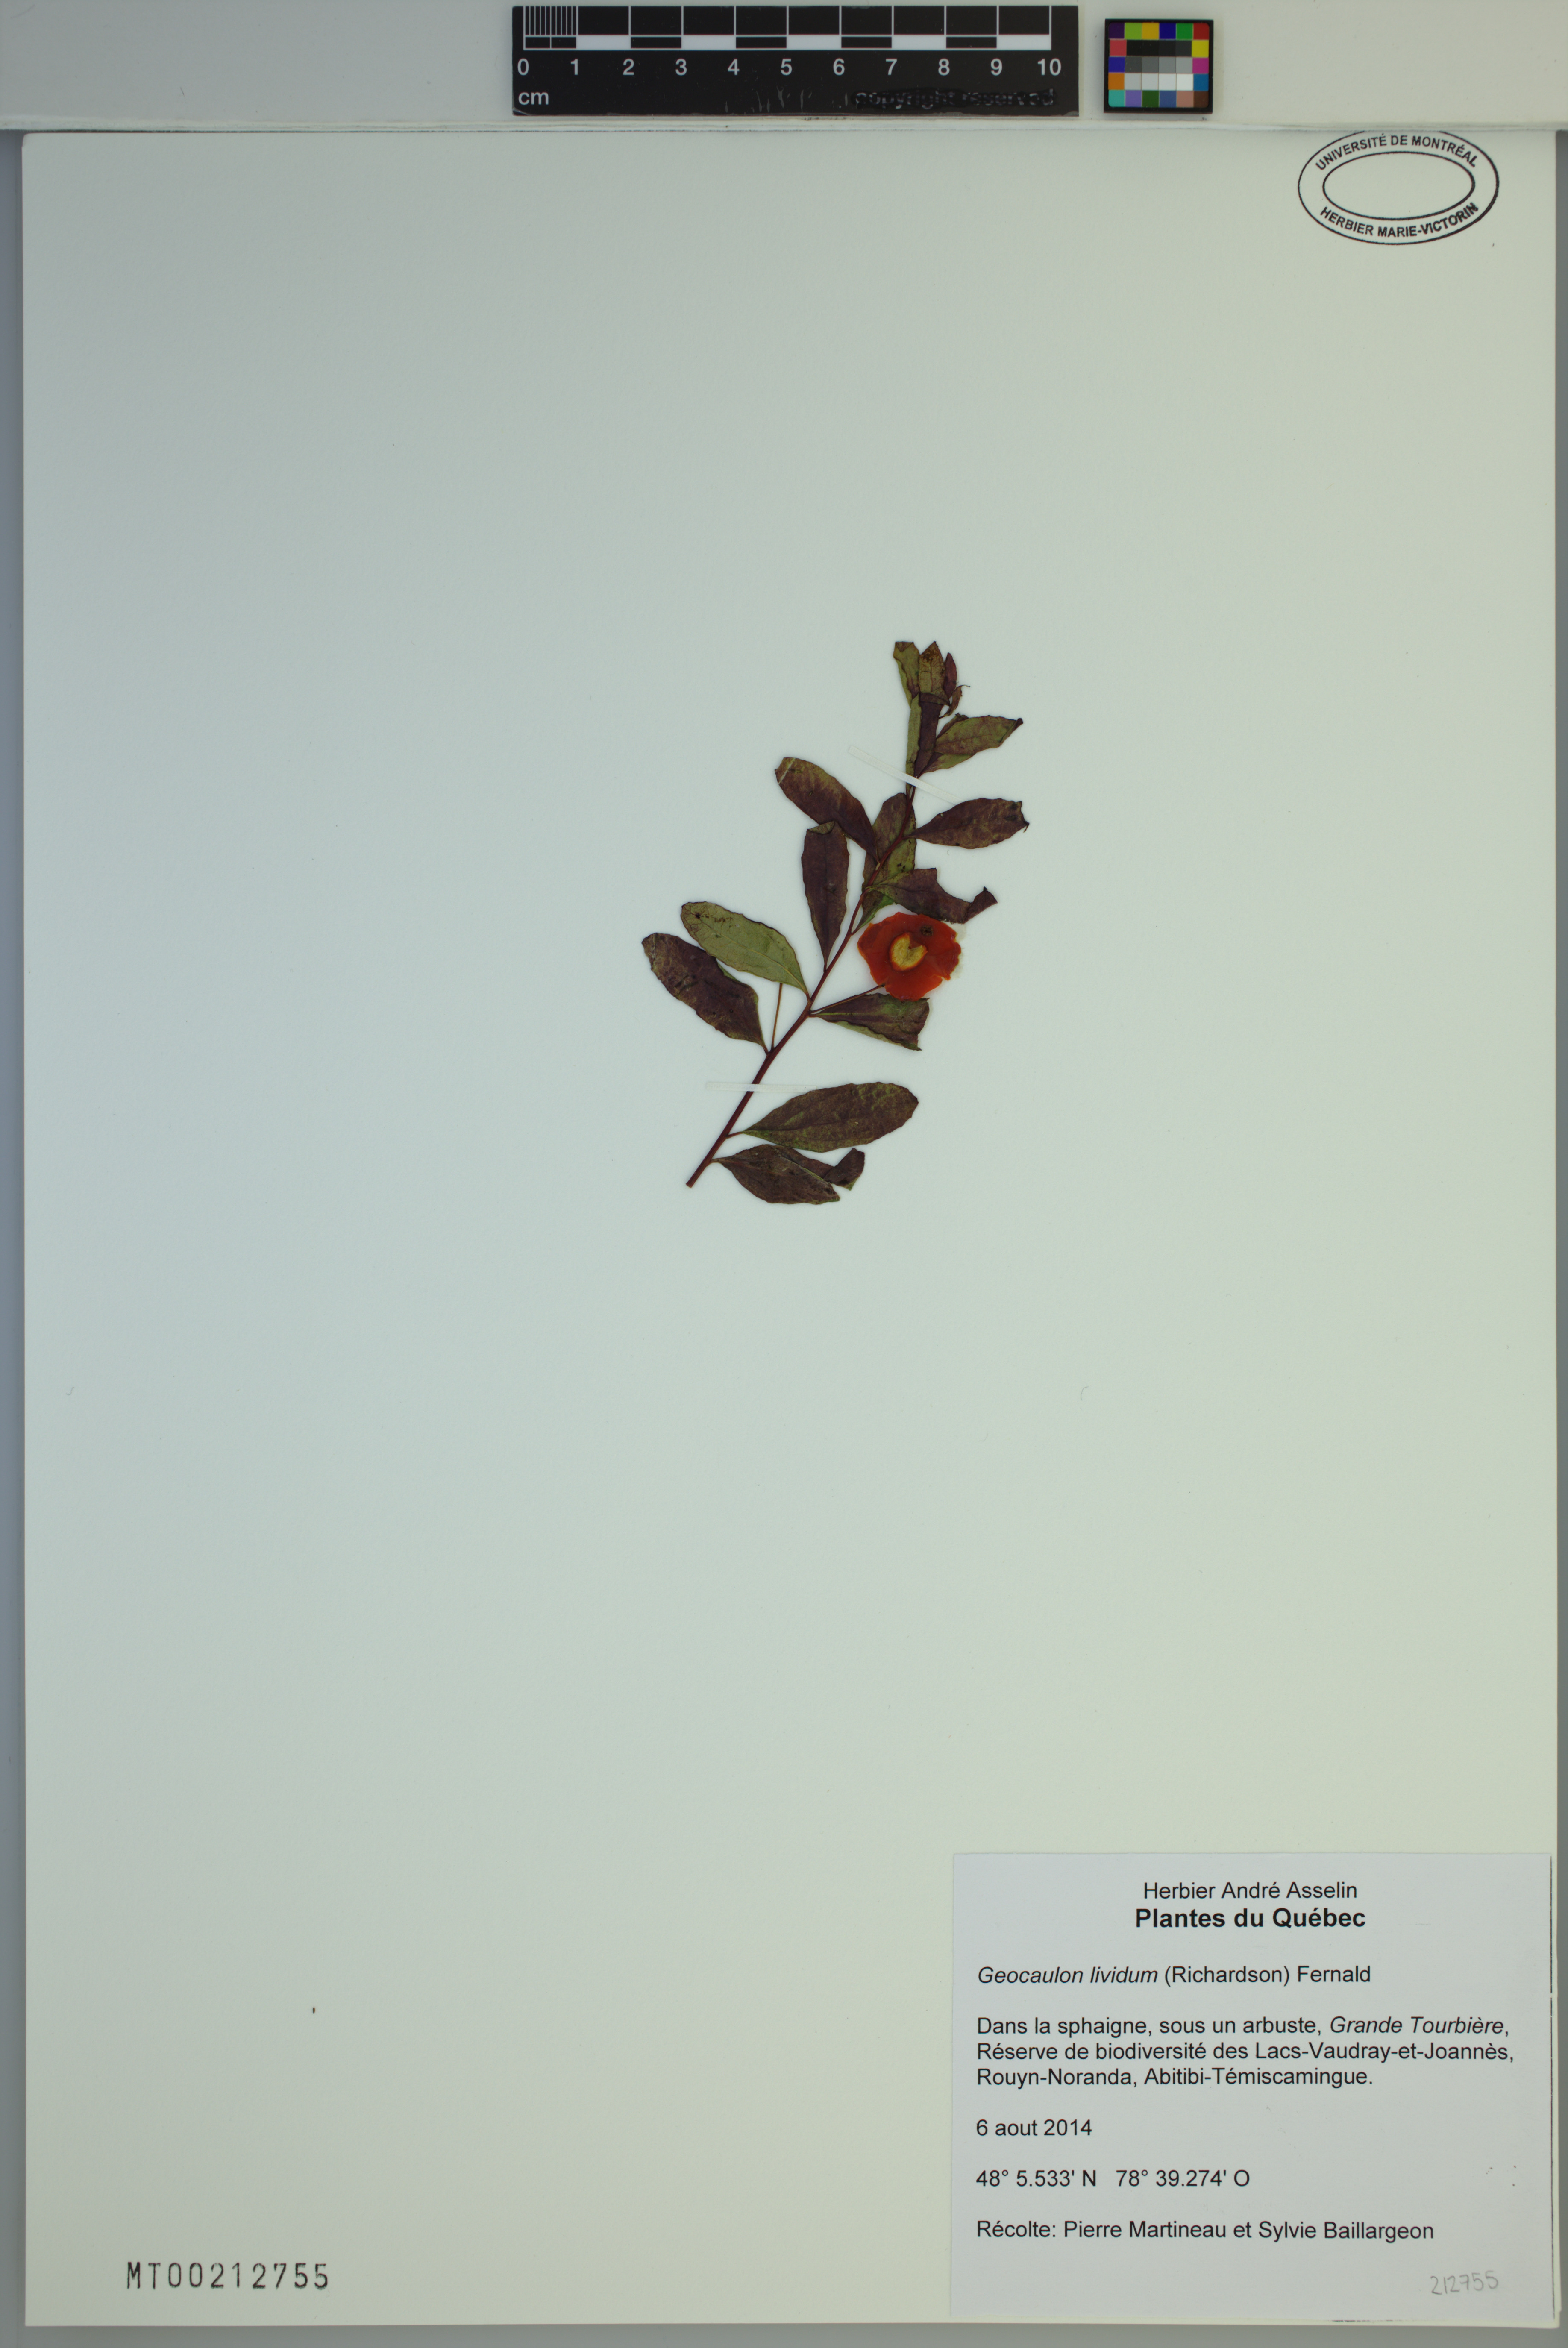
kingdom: Plantae
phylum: Tracheophyta
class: Magnoliopsida
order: Santalales
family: Comandraceae
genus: Geocaulon
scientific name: Geocaulon lividum
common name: Earthberry
